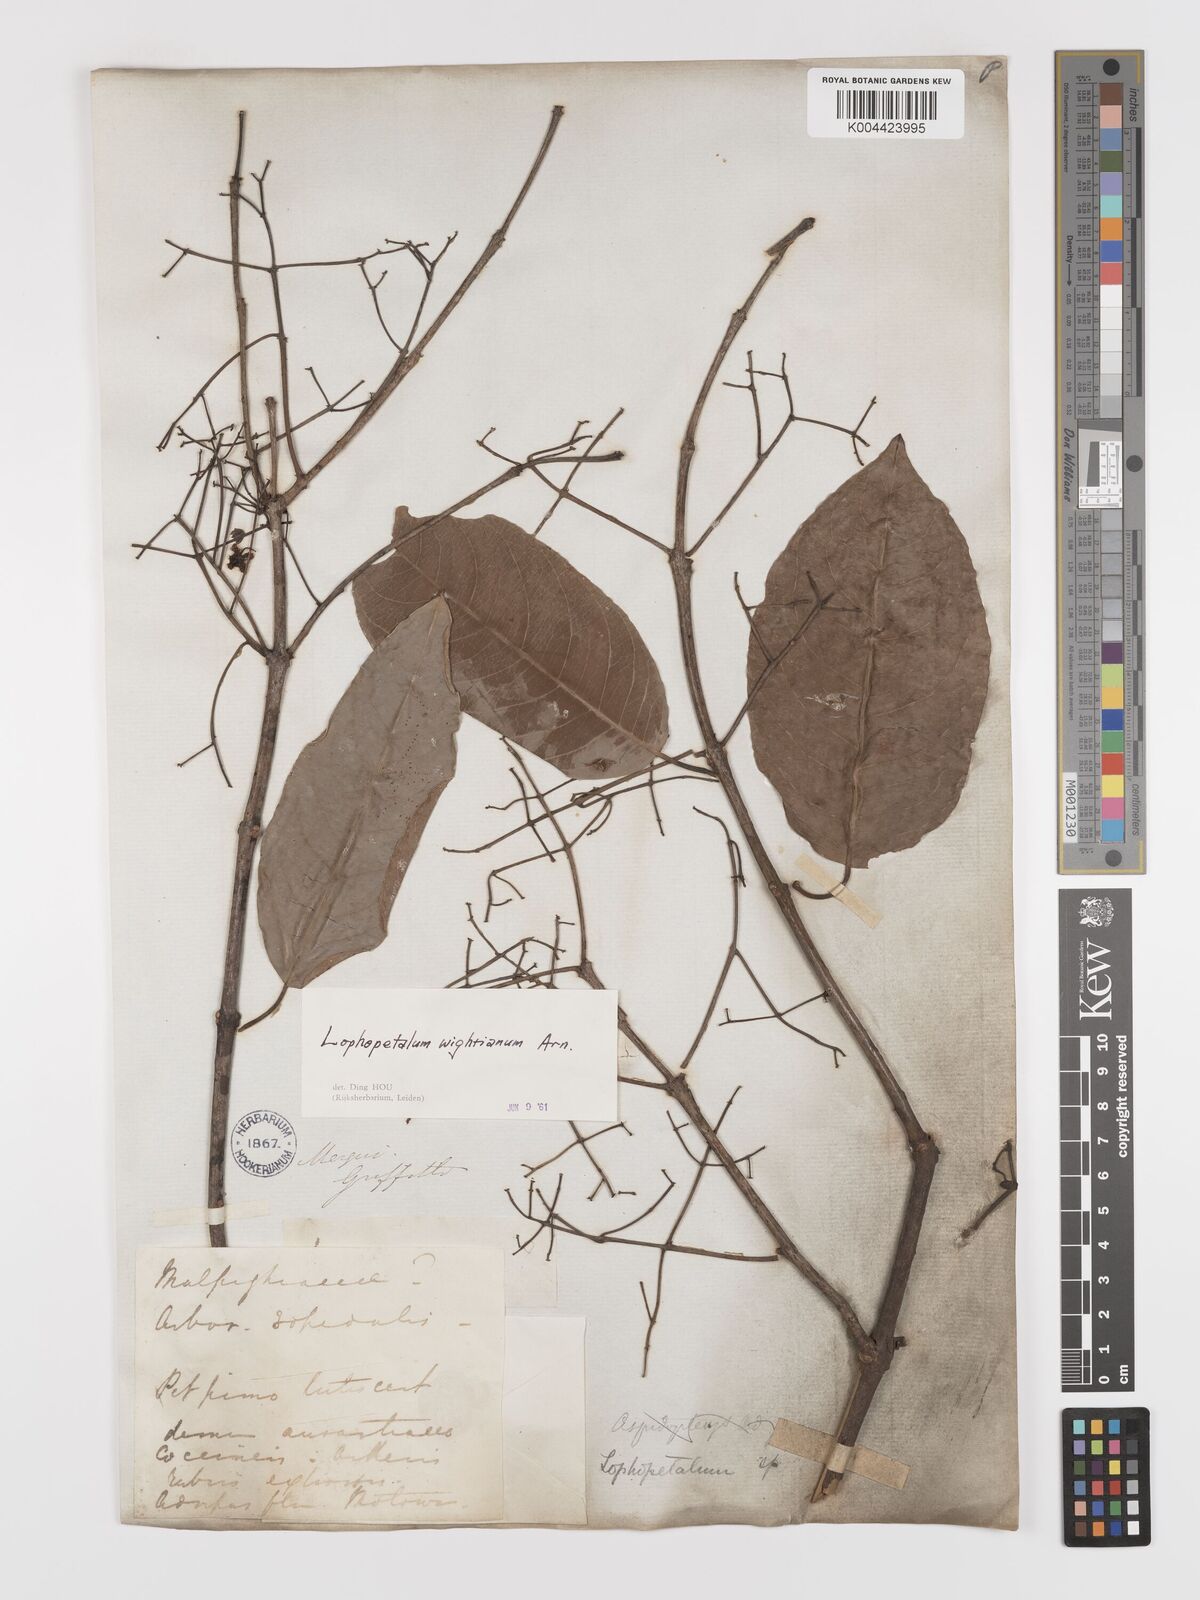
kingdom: Plantae
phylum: Tracheophyta
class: Magnoliopsida
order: Celastrales
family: Celastraceae
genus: Lophopetalum
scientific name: Lophopetalum wightianum
